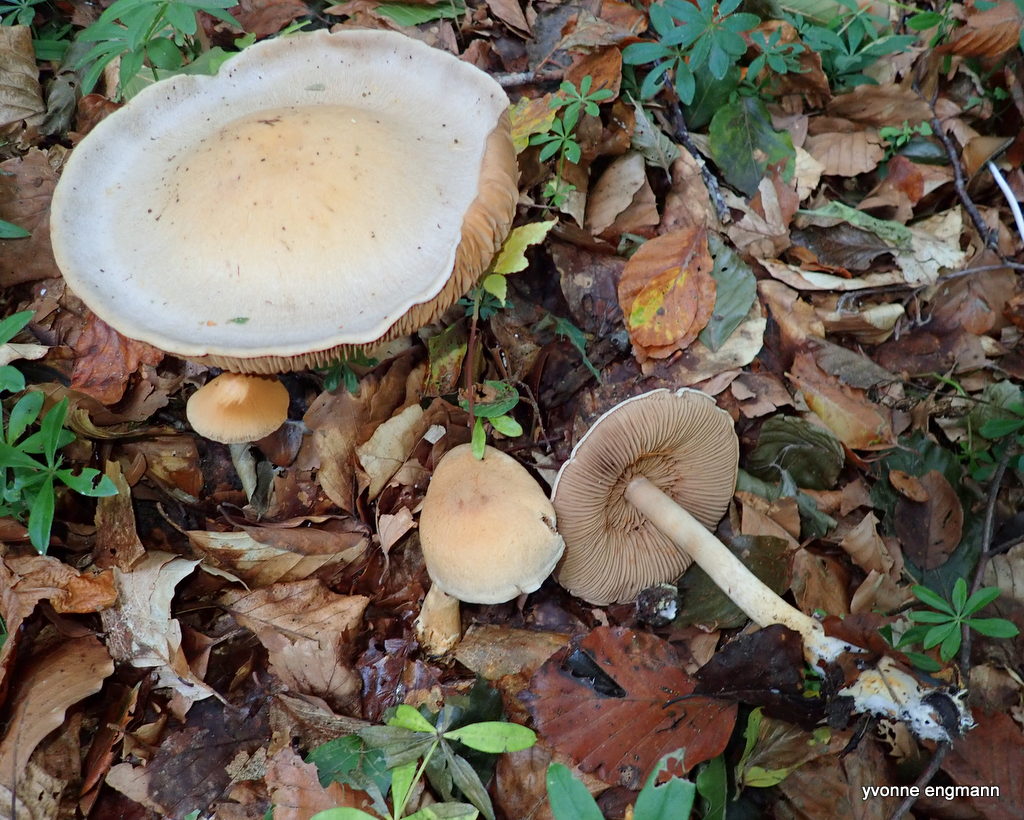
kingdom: Fungi
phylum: Basidiomycota
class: Agaricomycetes
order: Agaricales
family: Hymenogastraceae
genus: Hebeloma
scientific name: Hebeloma
